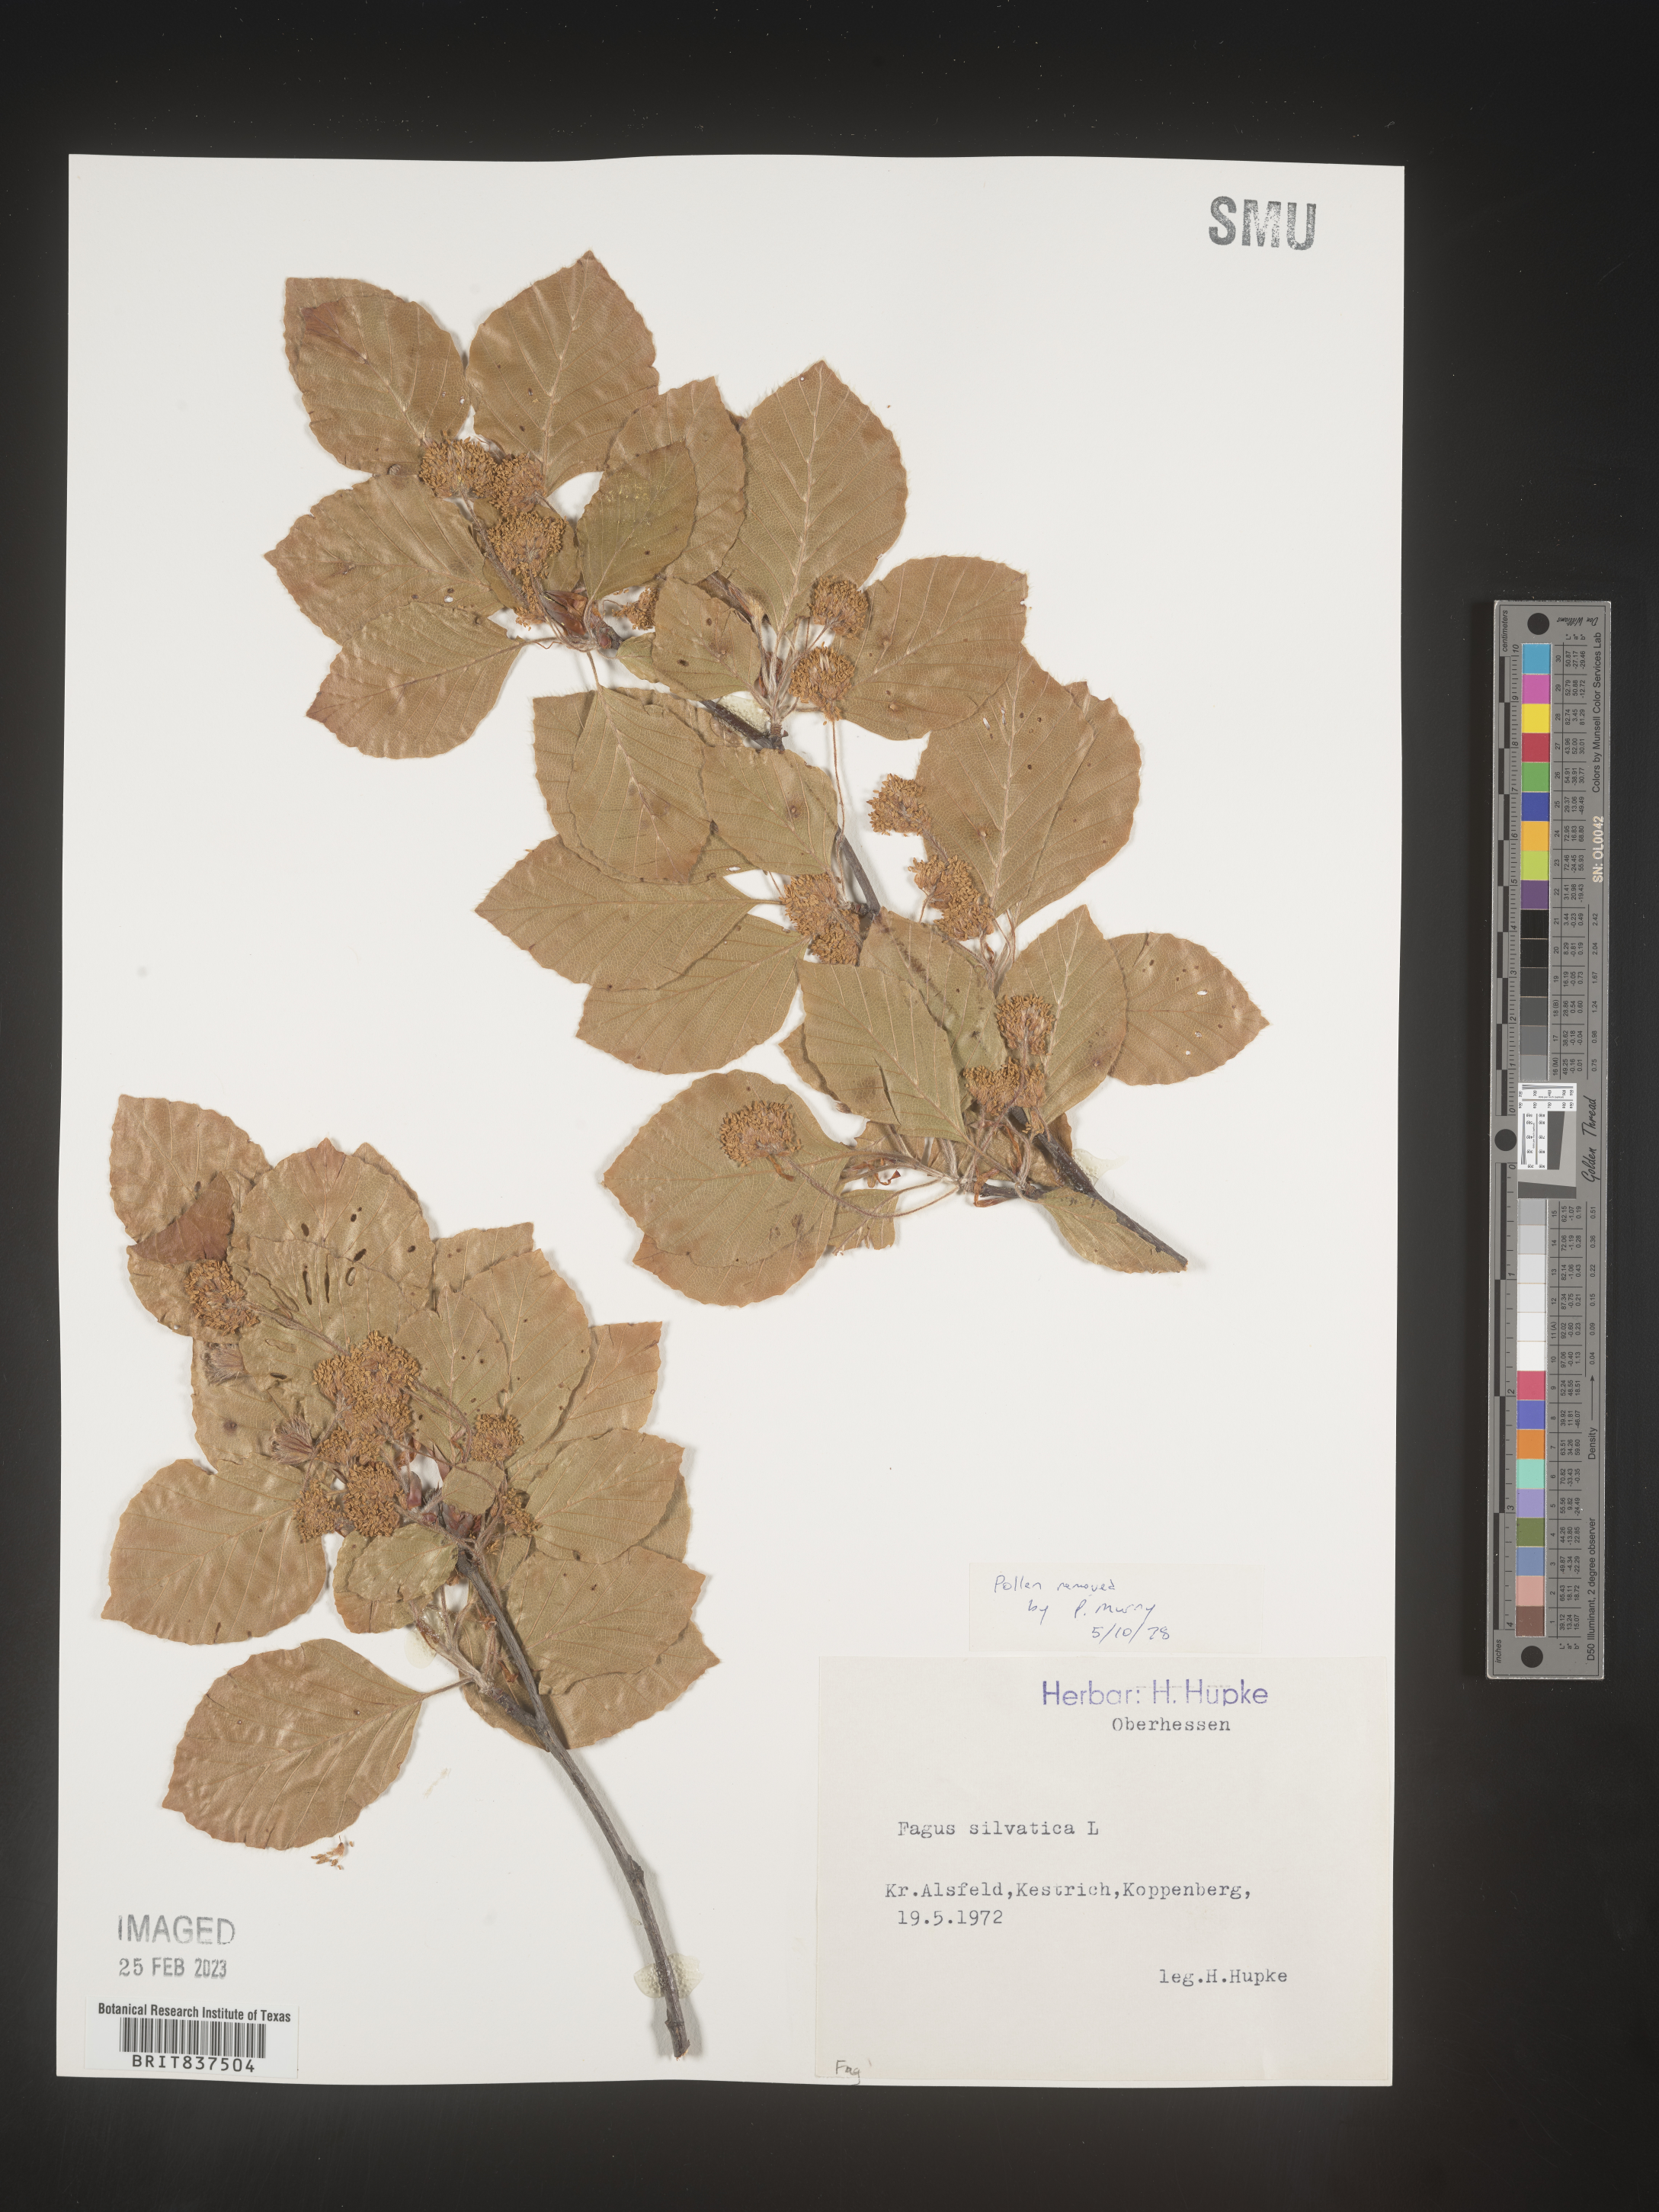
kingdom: Plantae
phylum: Tracheophyta
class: Magnoliopsida
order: Fagales
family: Fagaceae
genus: Fagus
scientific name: Fagus
